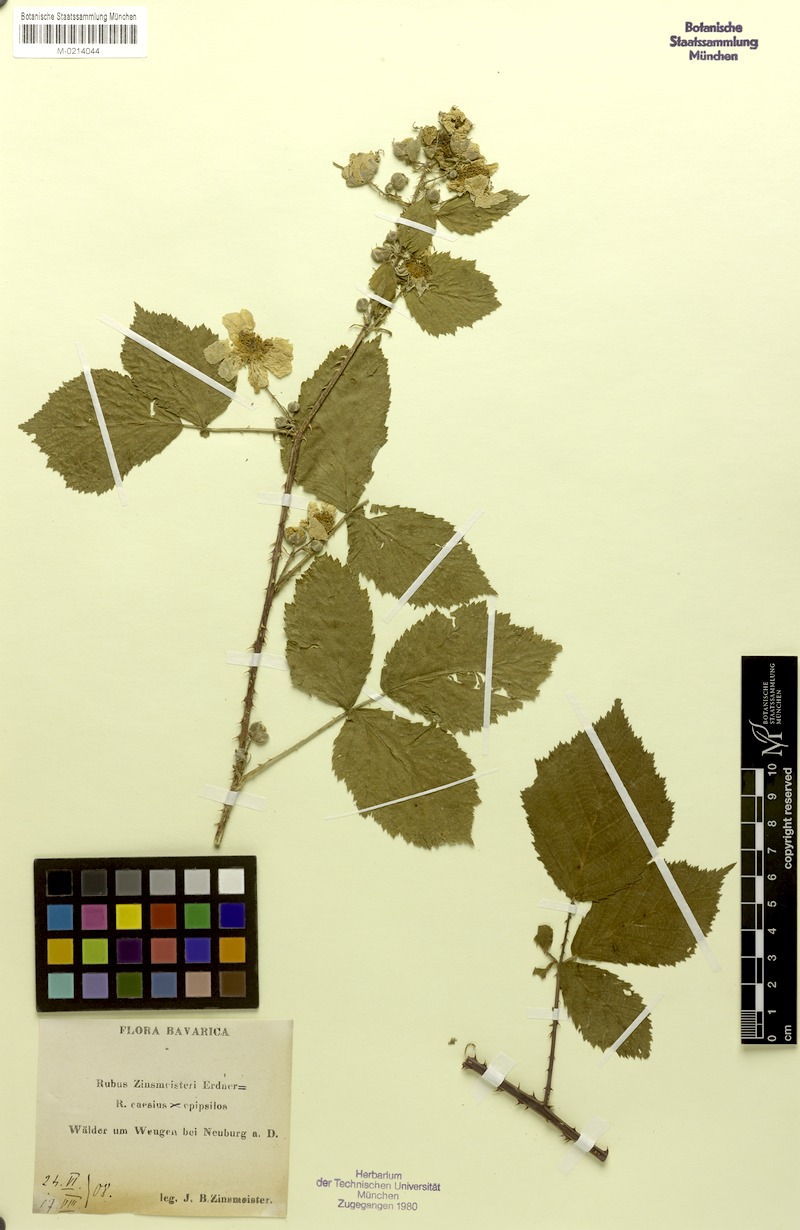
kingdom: Plantae
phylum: Tracheophyta
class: Magnoliopsida
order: Rosales
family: Rosaceae
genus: Rubus
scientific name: Rubus zinsmeisteri
